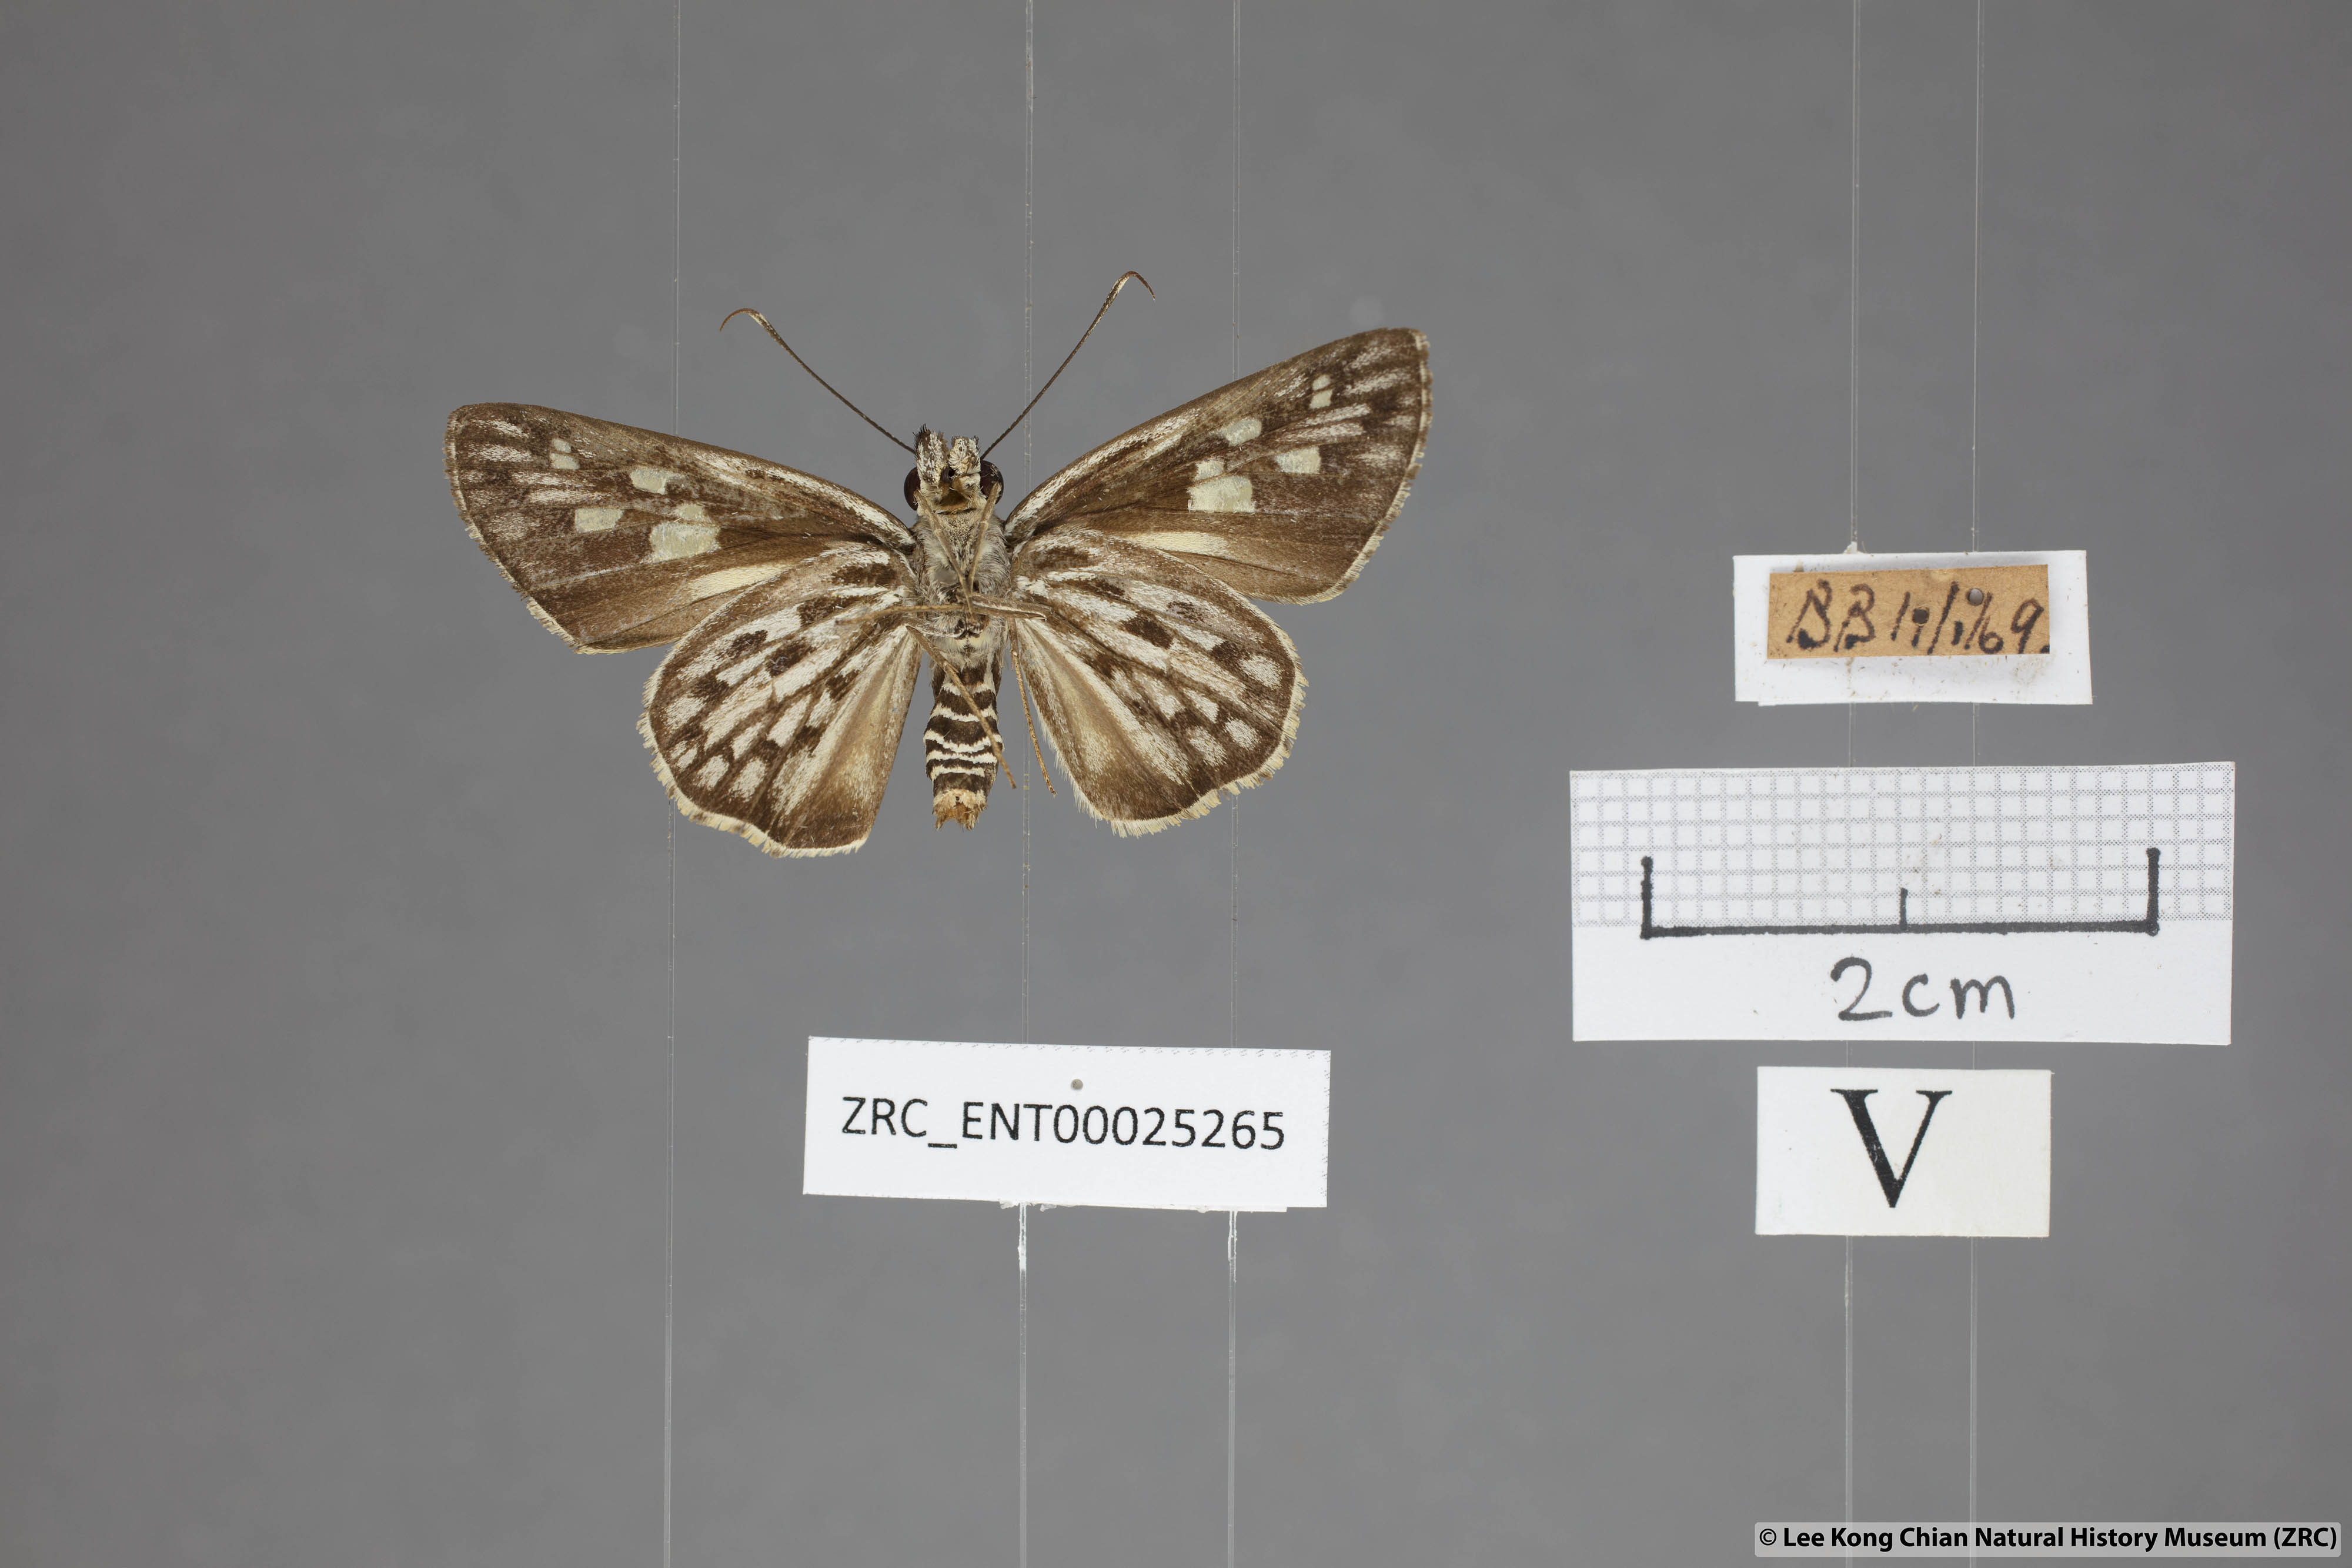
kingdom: Animalia
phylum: Arthropoda
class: Insecta
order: Lepidoptera
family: Hesperiidae
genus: Plastingia
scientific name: Plastingia naga
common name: Chequered lancer
